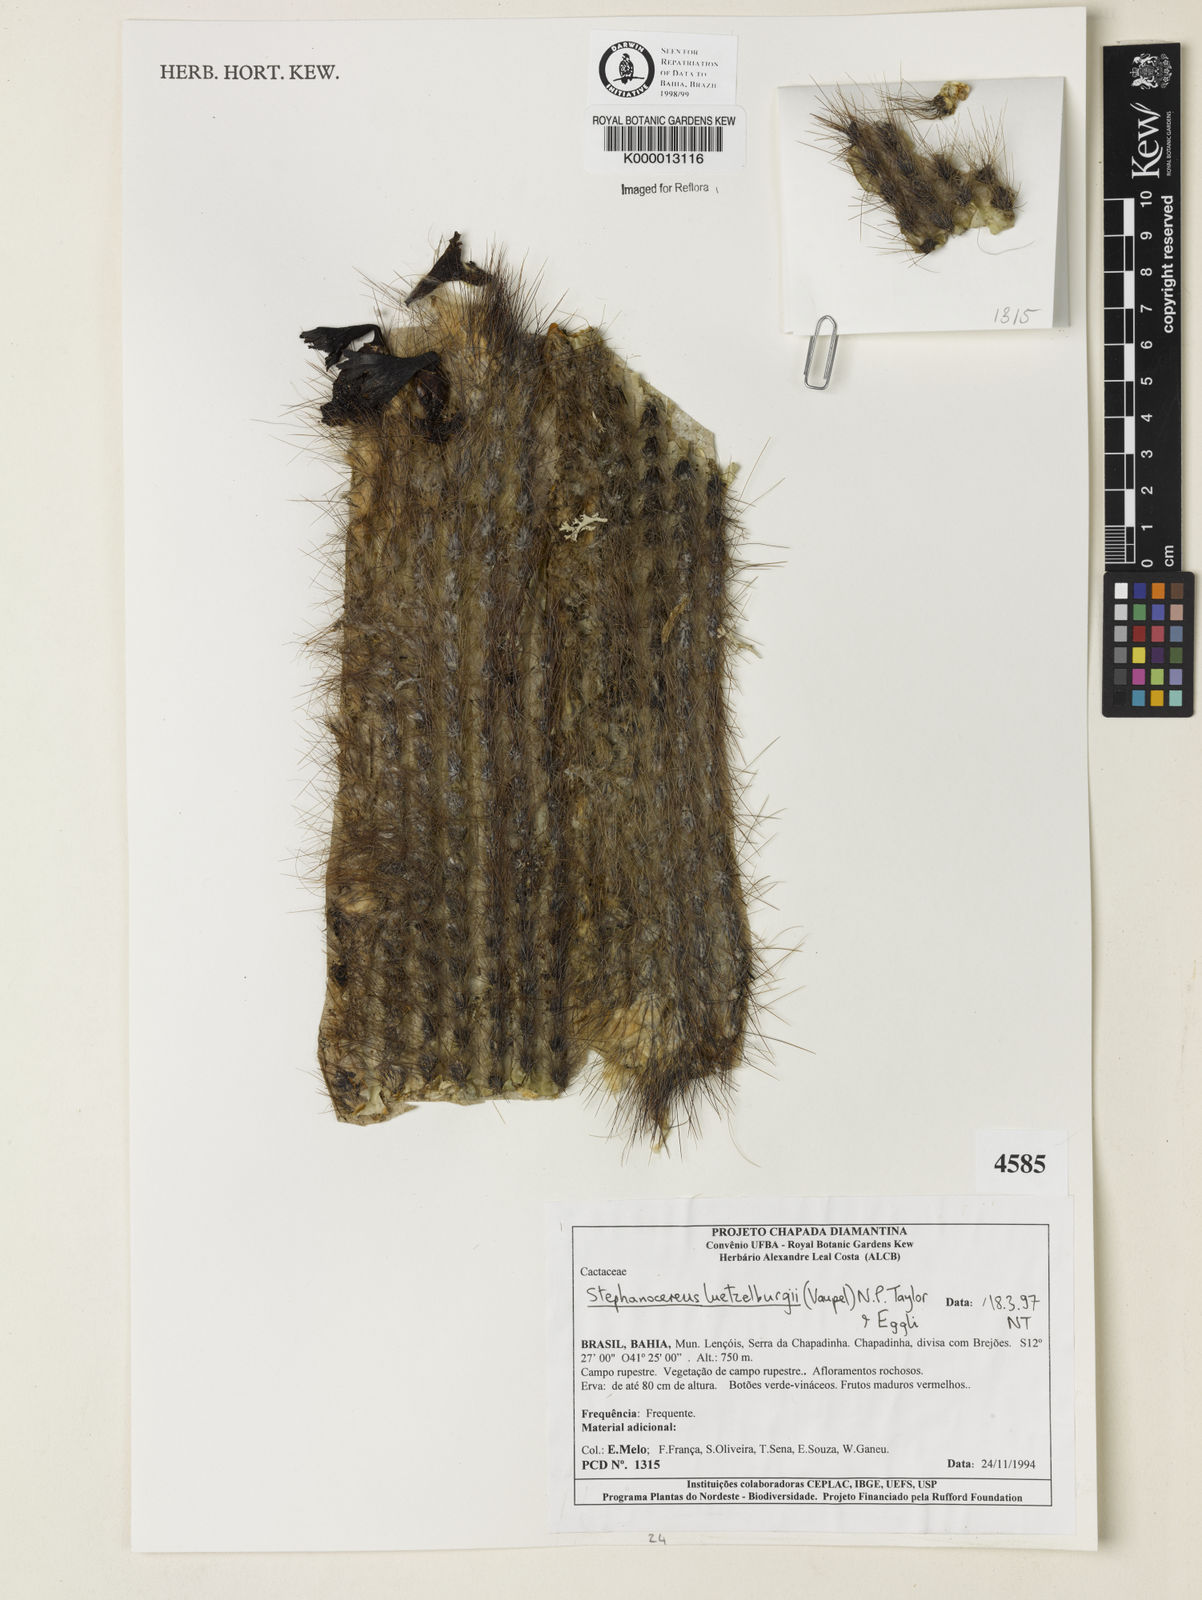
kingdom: Plantae
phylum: Tracheophyta
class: Magnoliopsida
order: Caryophyllales
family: Cactaceae
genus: Lagenosocereus
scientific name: Lagenosocereus luetzelburgii
